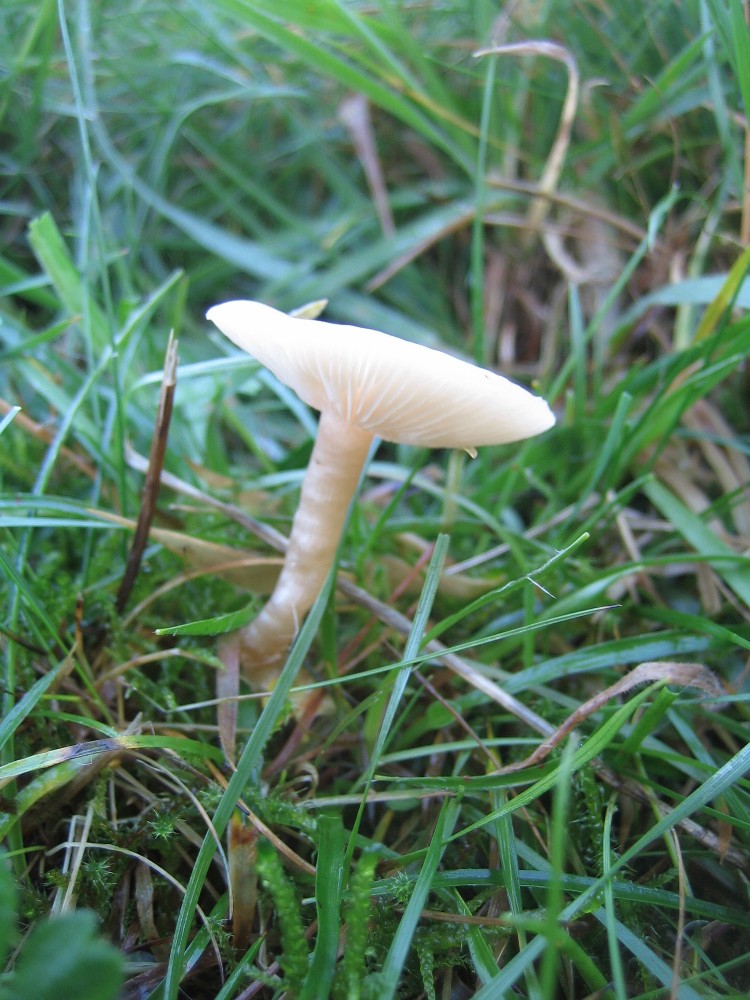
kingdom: Fungi
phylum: Basidiomycota
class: Agaricomycetes
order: Agaricales
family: Tricholomataceae
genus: Clitocybe
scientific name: Clitocybe
